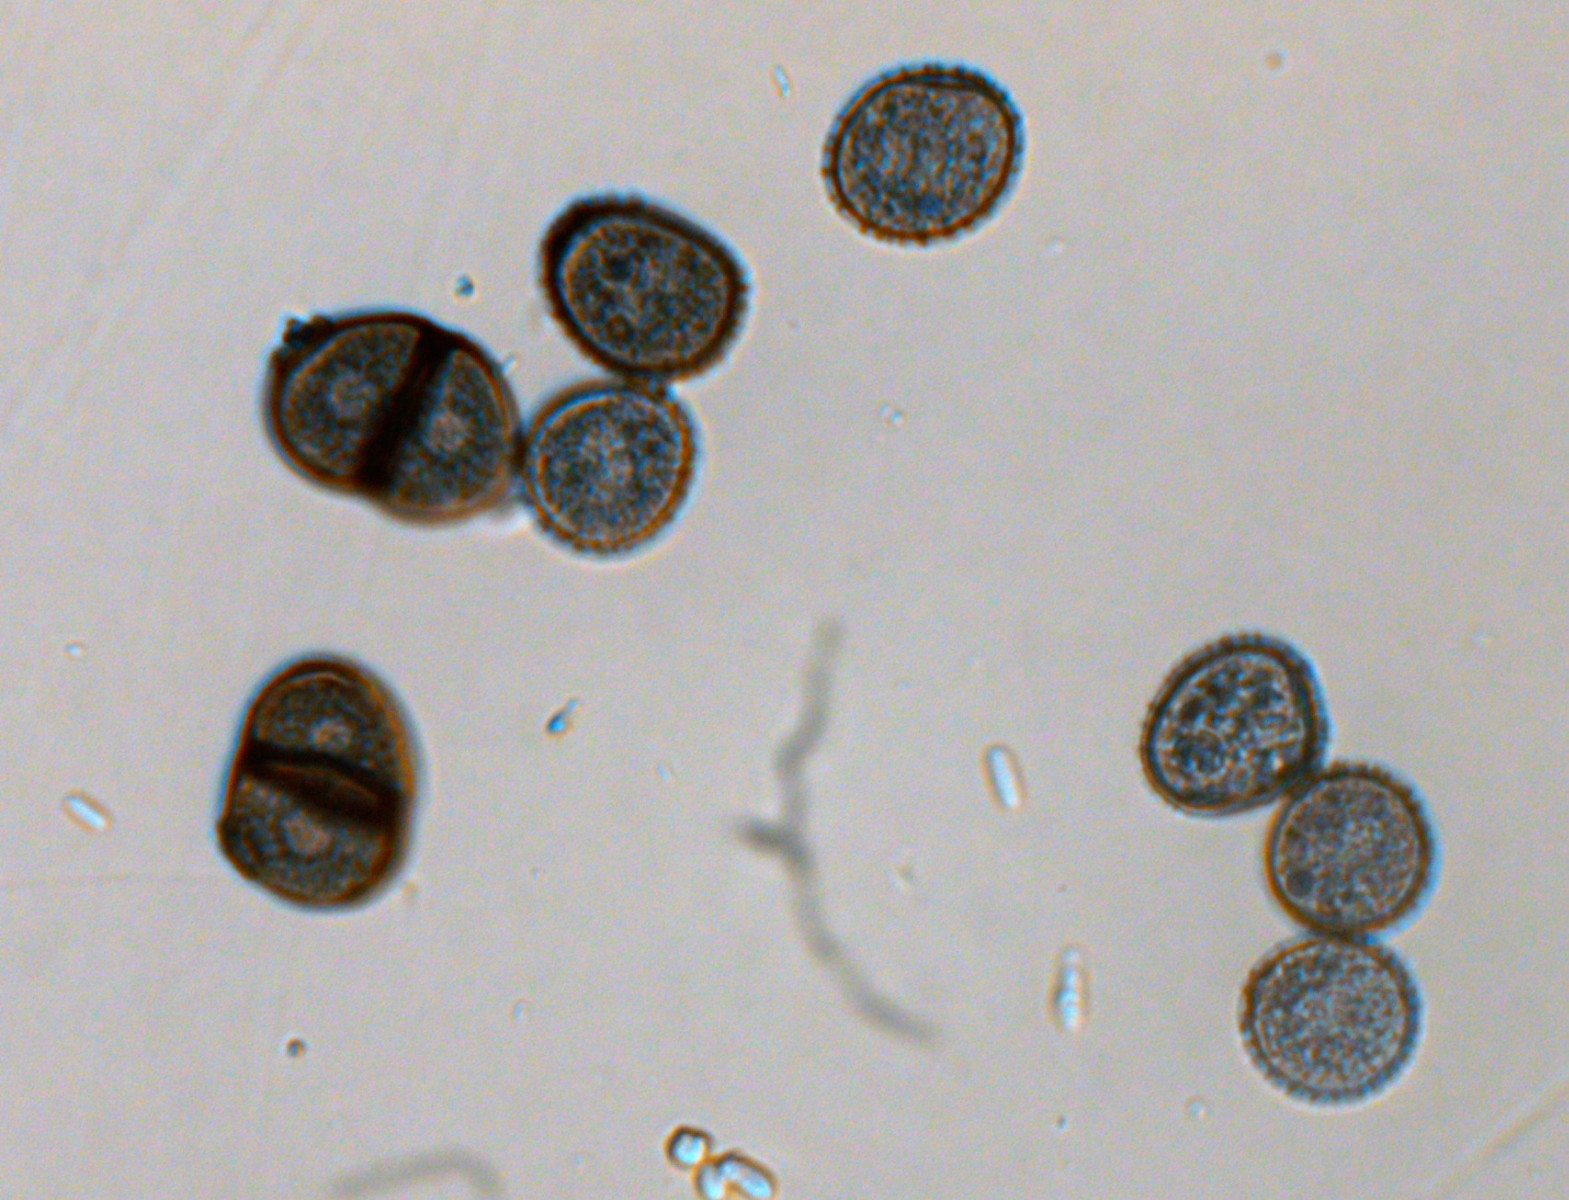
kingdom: Fungi
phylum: Basidiomycota
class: Pucciniomycetes
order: Pucciniales
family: Pucciniaceae
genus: Puccinia
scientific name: Puccinia lapsanae
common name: Nipplewort rust
